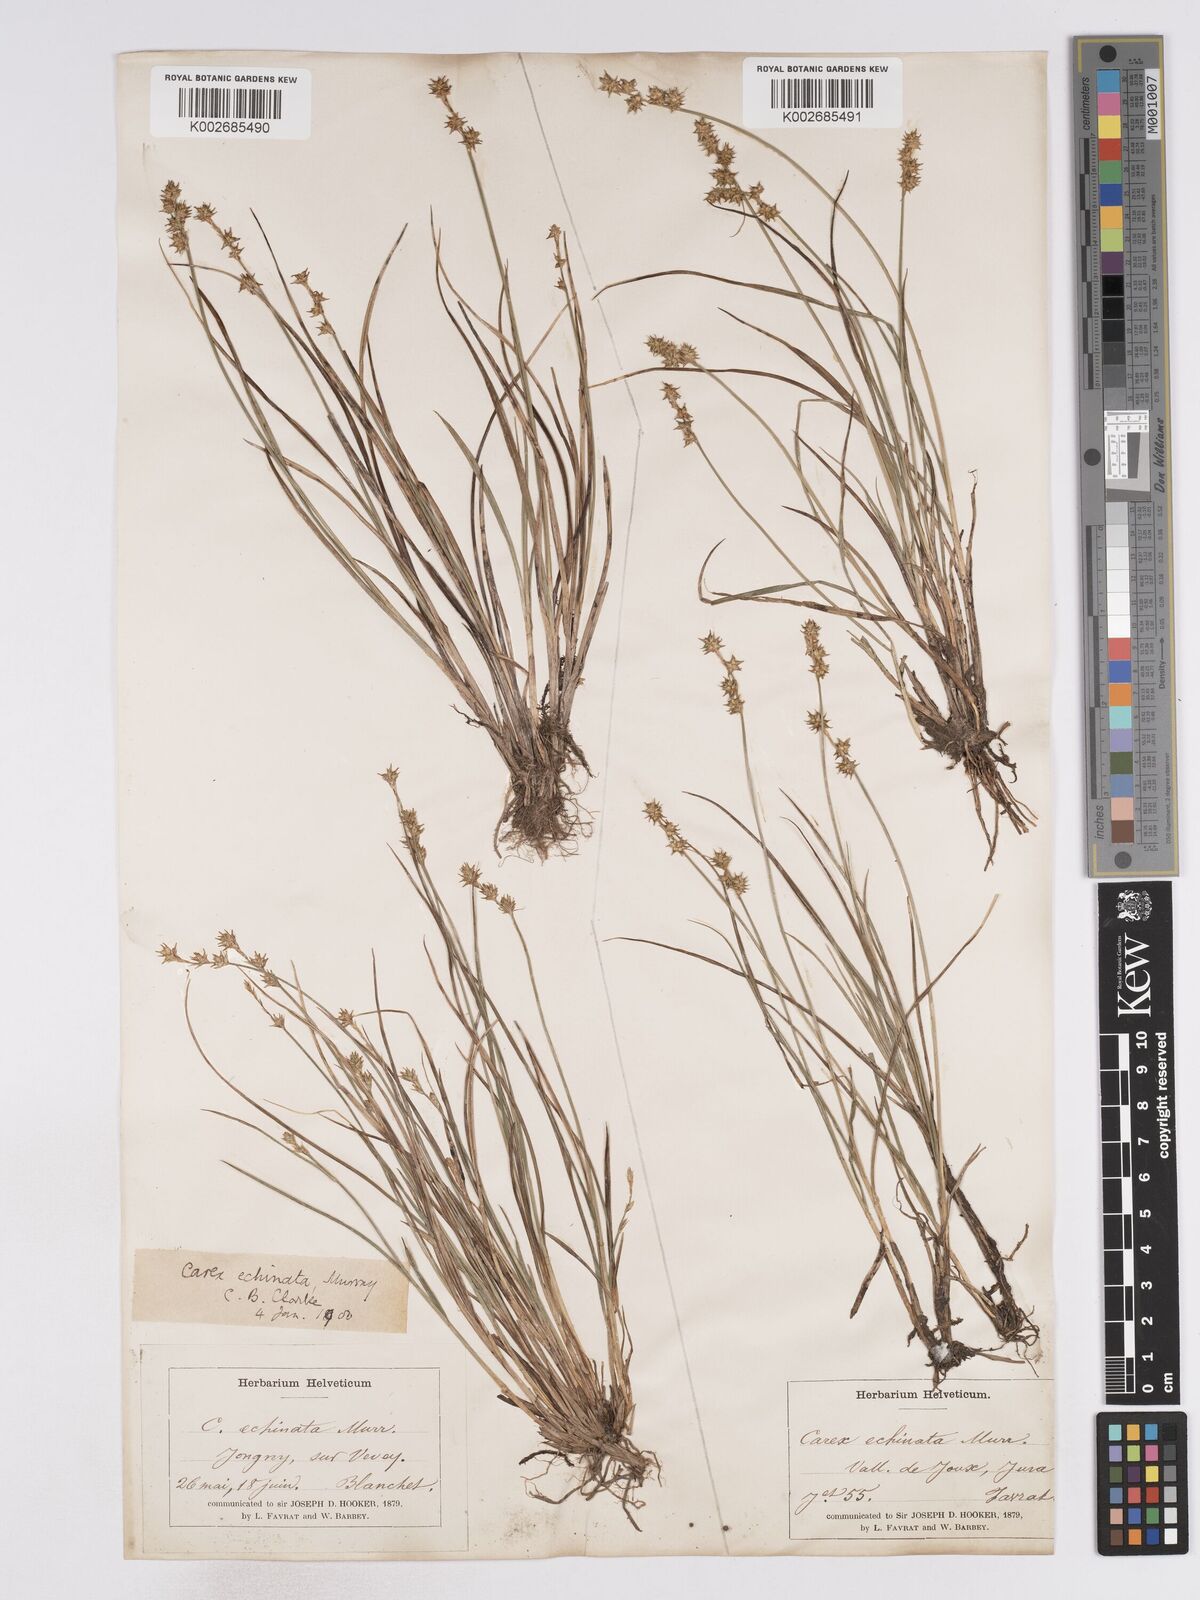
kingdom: Plantae
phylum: Tracheophyta
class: Liliopsida
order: Poales
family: Cyperaceae
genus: Carex
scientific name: Carex echinata
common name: Star sedge
